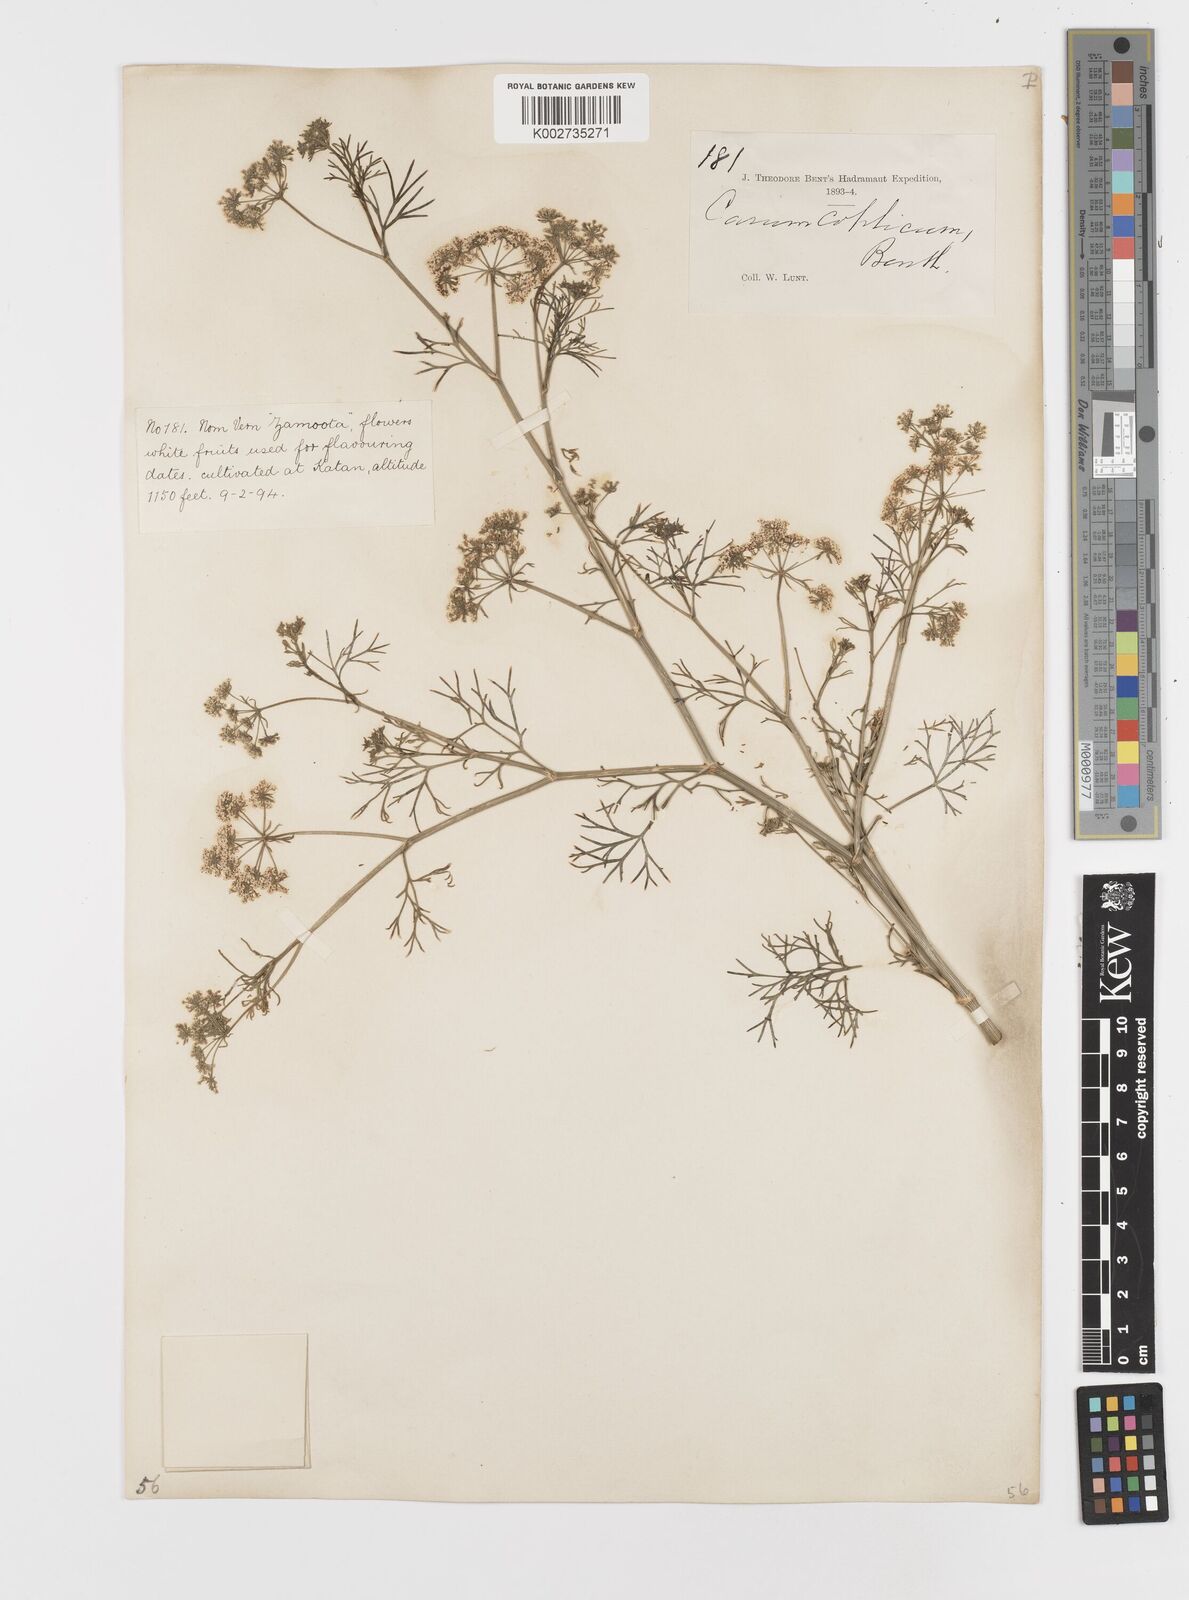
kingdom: Plantae
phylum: Tracheophyta
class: Magnoliopsida
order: Apiales
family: Apiaceae
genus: Trachyspermum
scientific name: Trachyspermum ammi
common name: Ajowan
